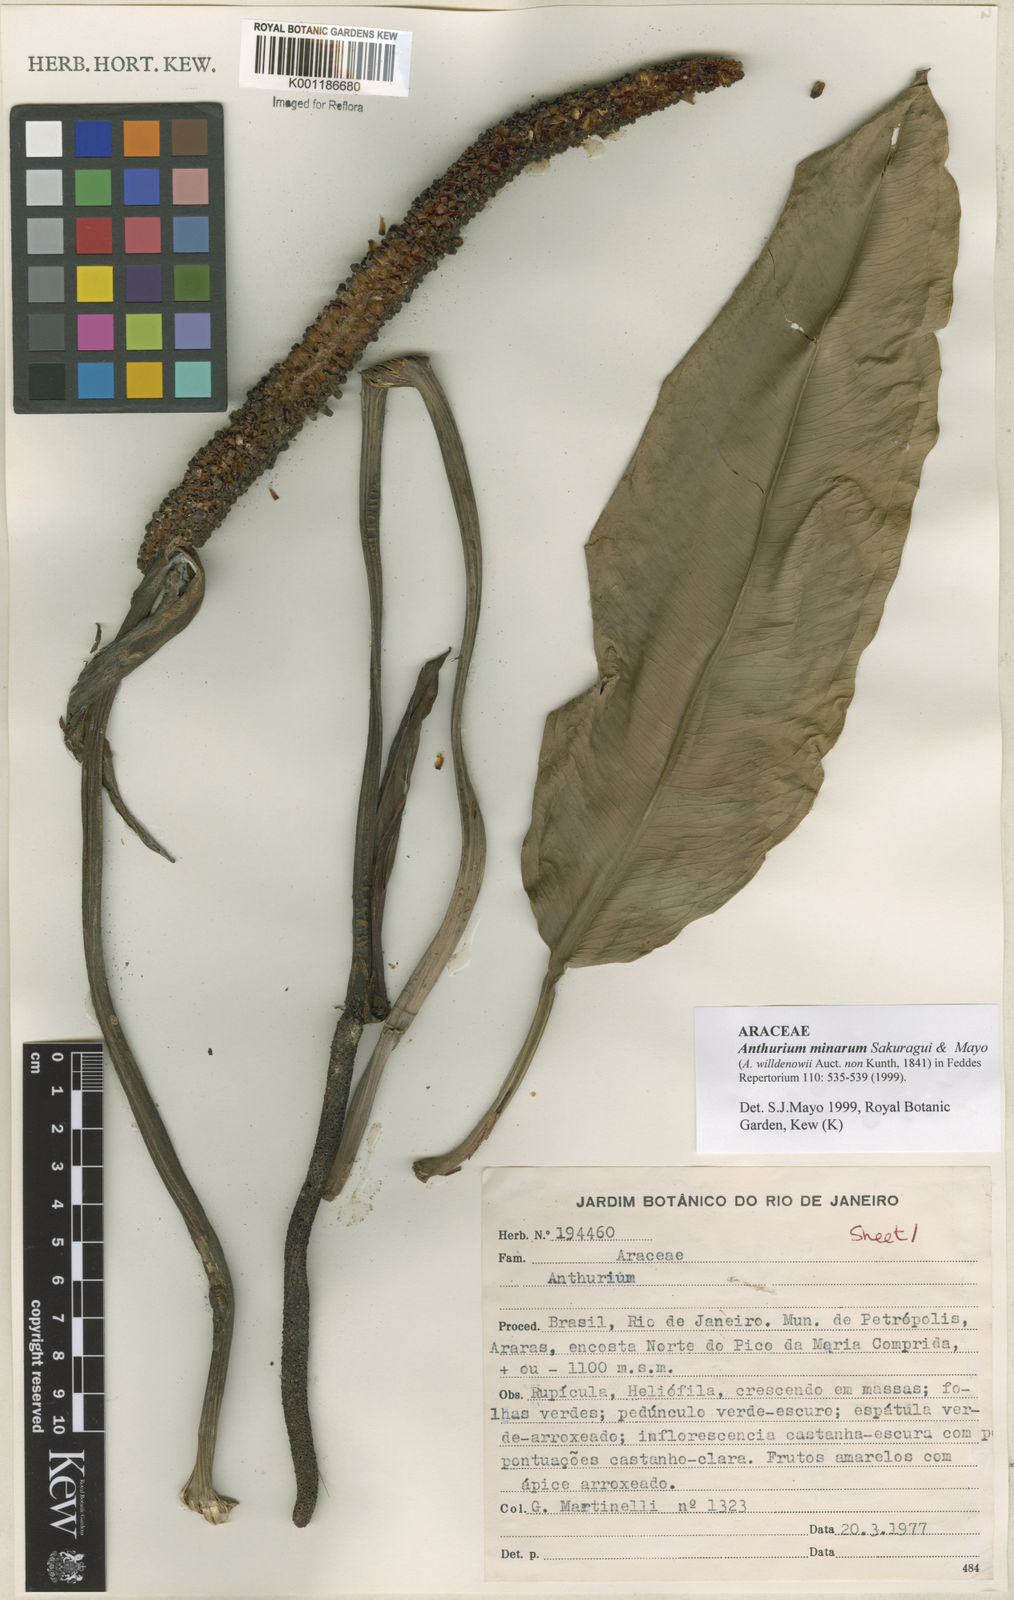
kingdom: Plantae
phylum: Tracheophyta
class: Liliopsida
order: Alismatales
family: Araceae
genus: Anthurium
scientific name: Anthurium minarum
